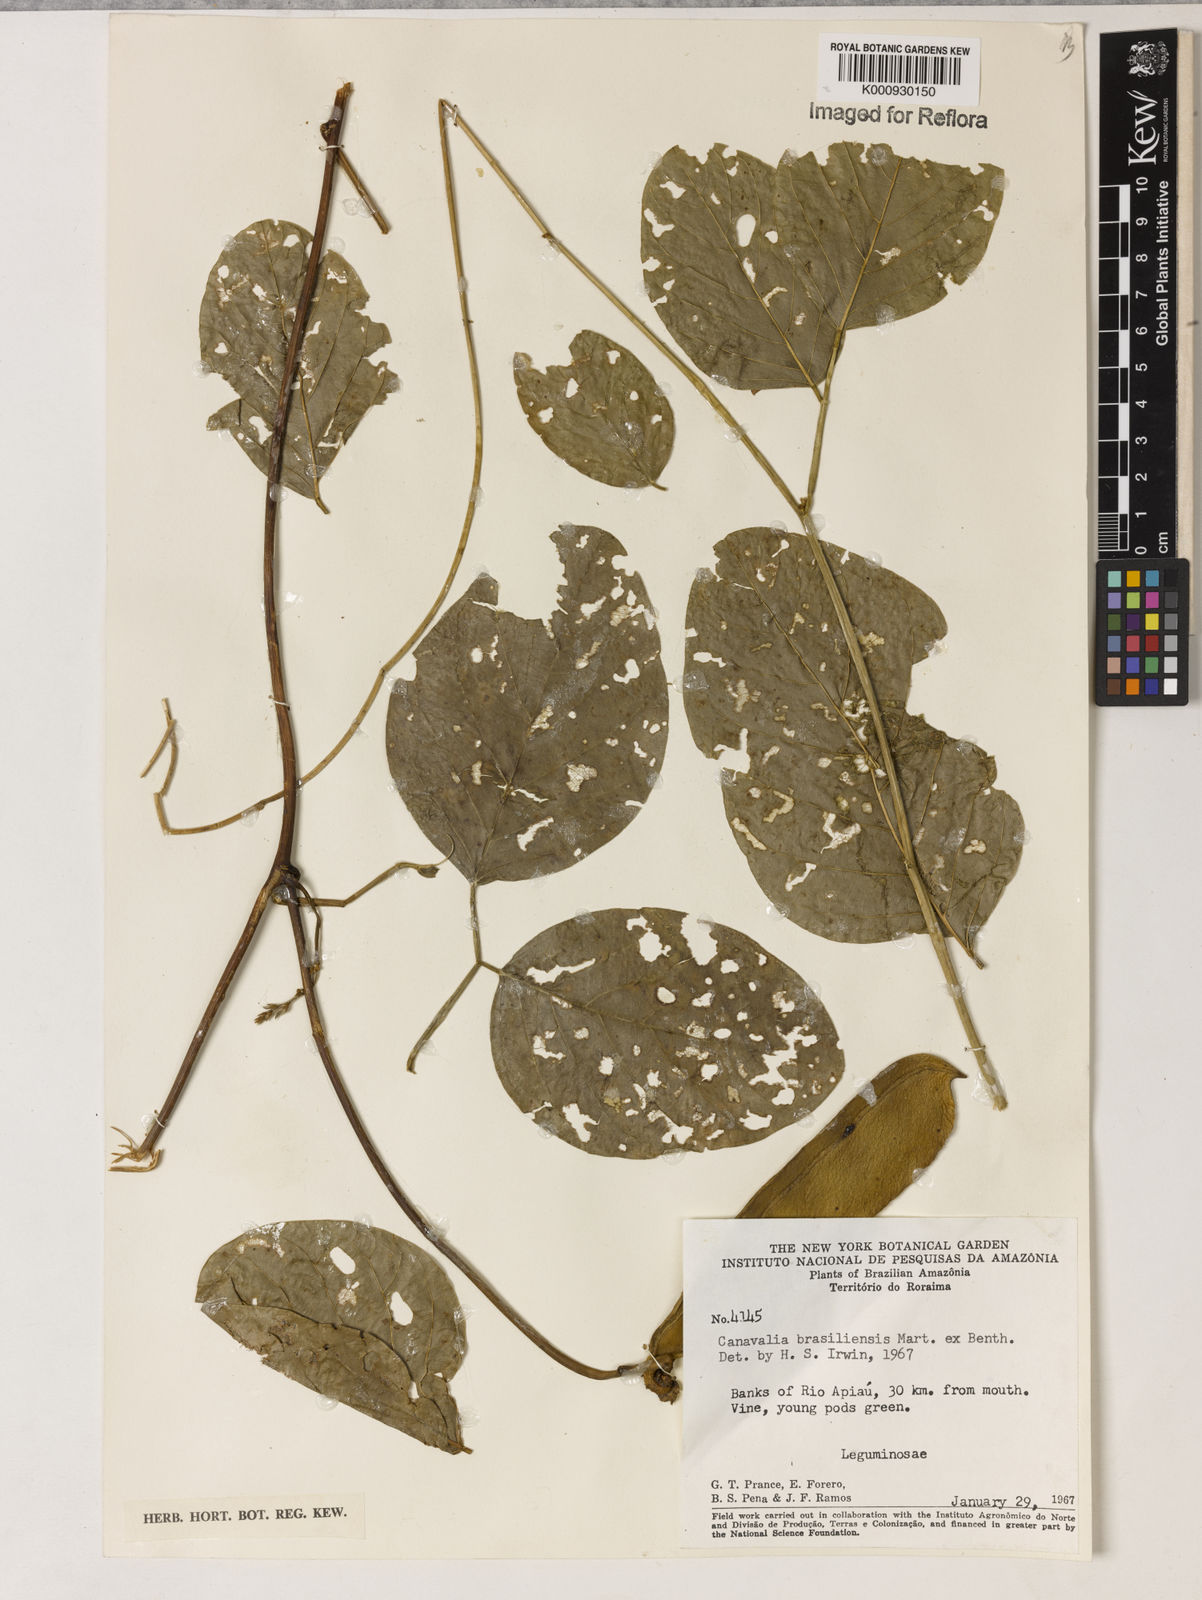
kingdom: Plantae
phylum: Tracheophyta
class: Magnoliopsida
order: Fabales
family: Fabaceae
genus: Canavalia
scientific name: Canavalia brasiliensis
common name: Barbicou-bean
